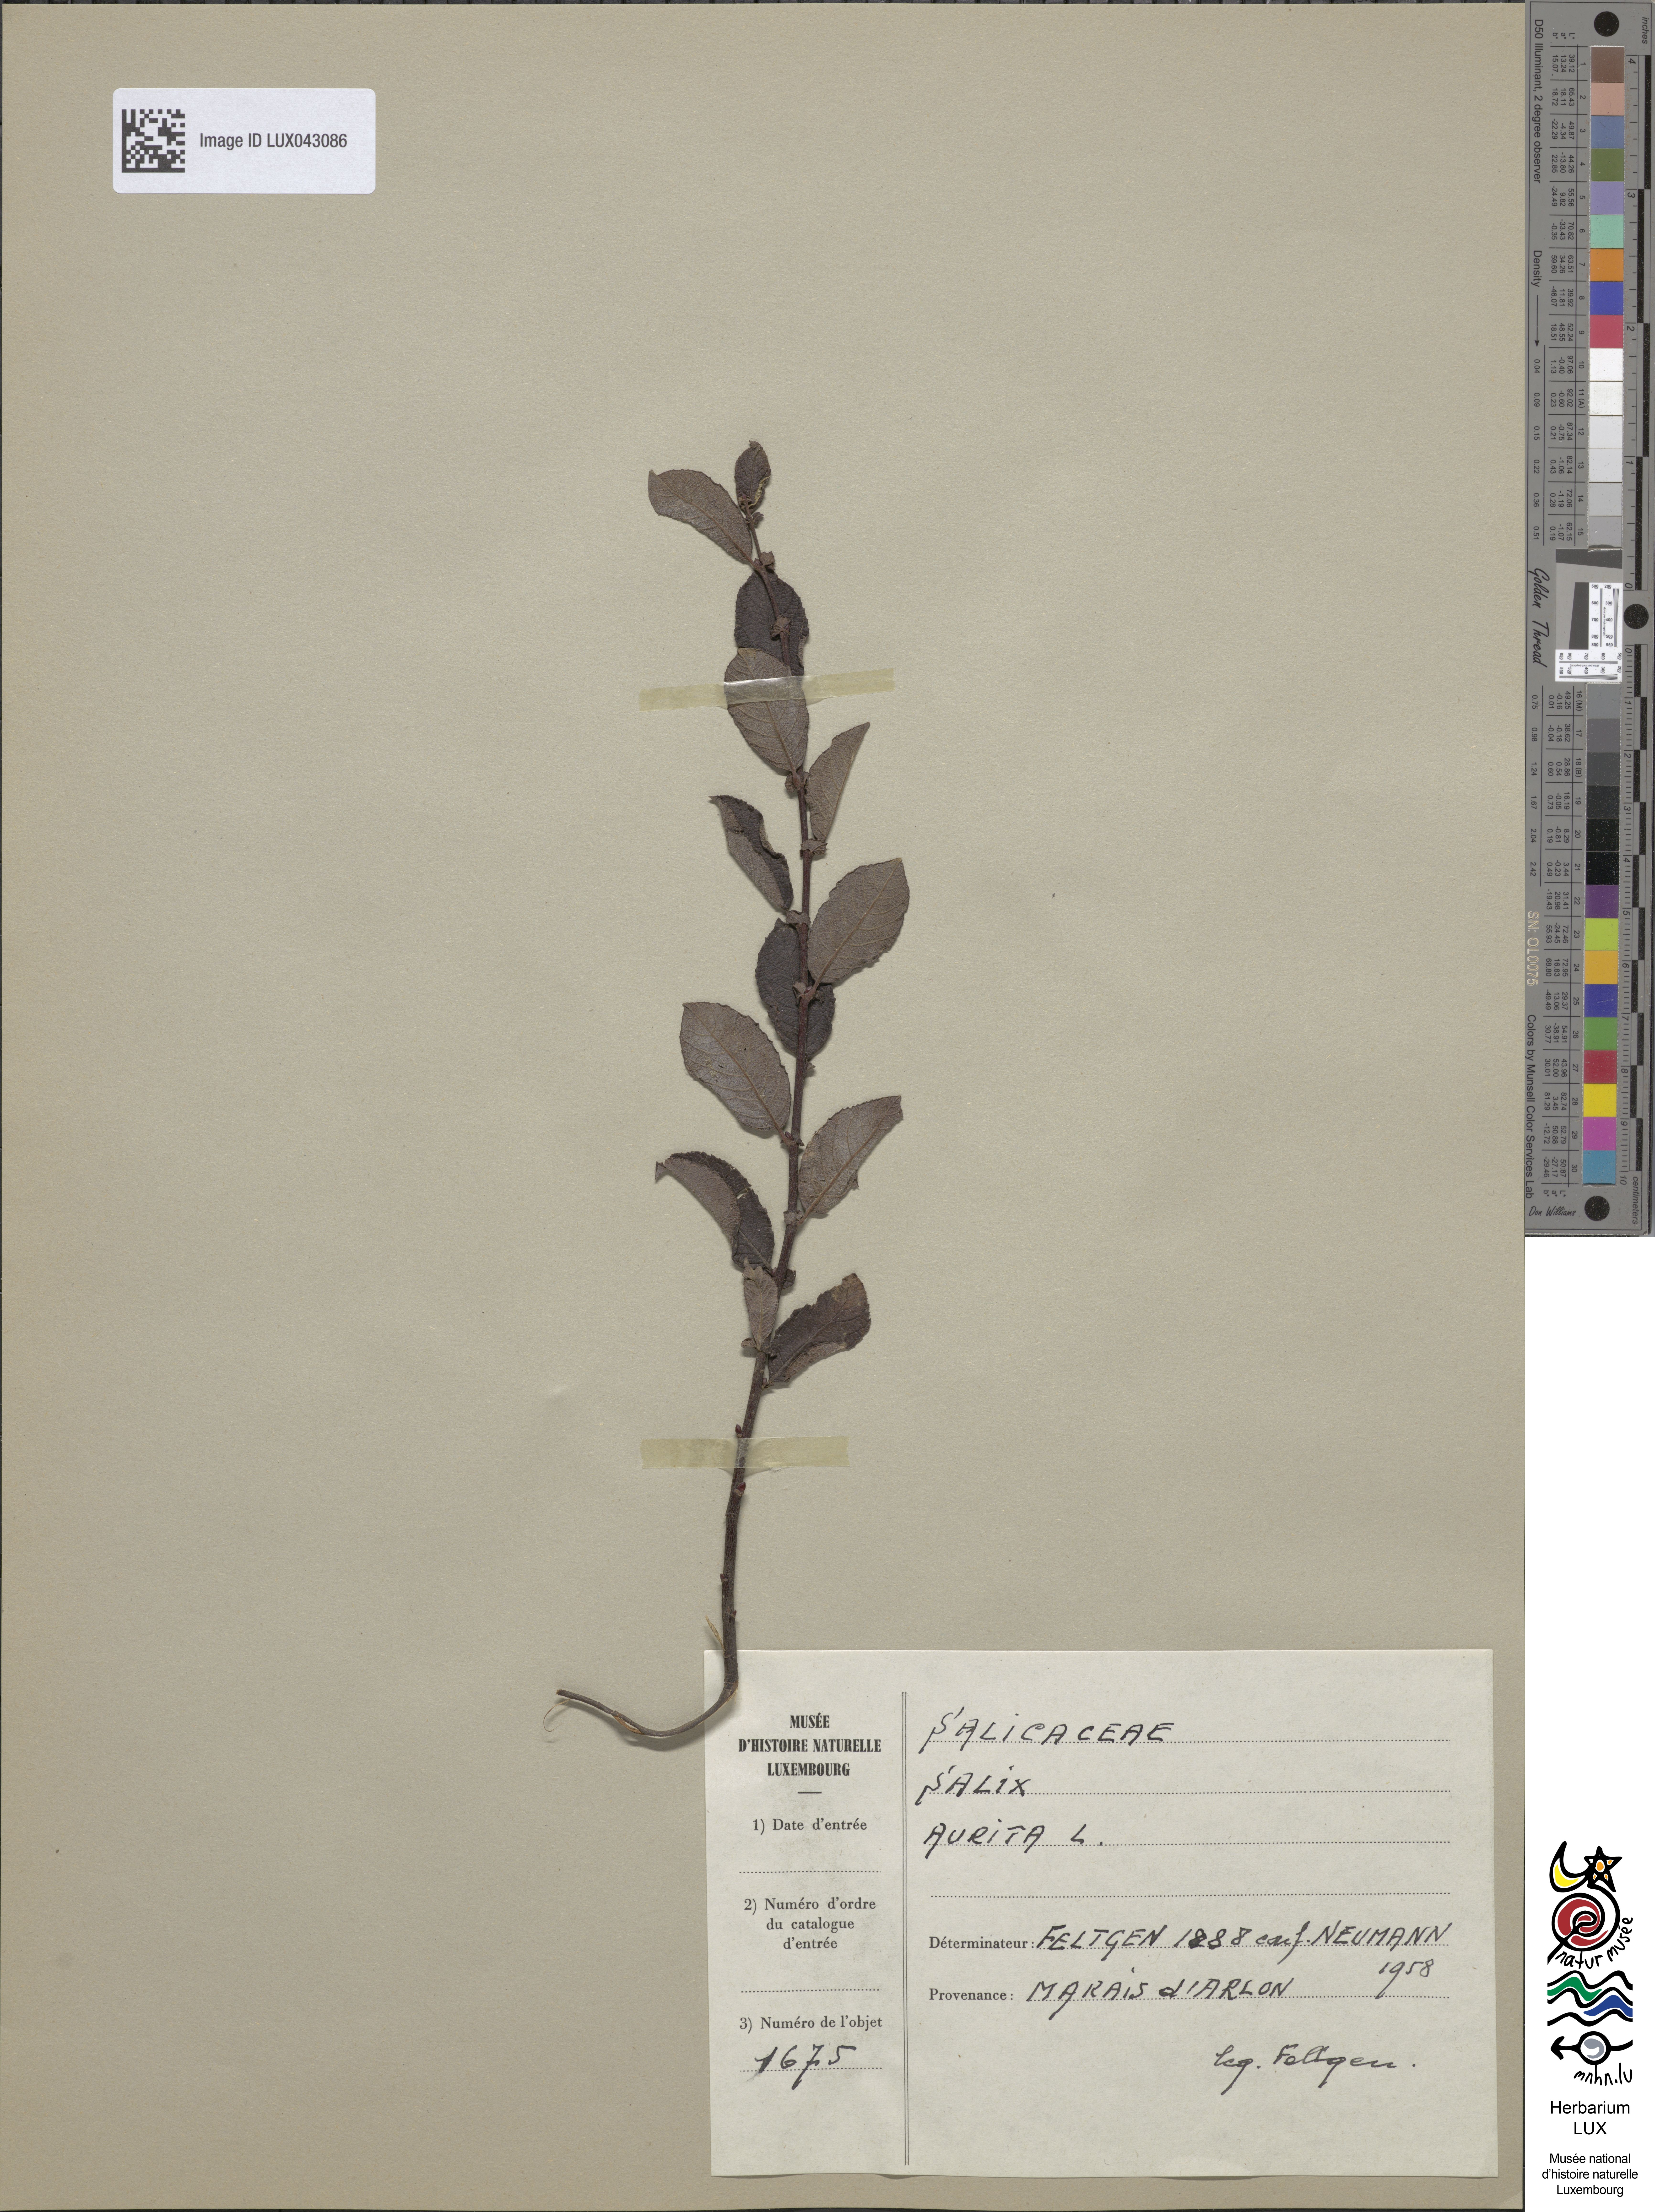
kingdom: Plantae
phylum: Tracheophyta
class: Magnoliopsida
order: Malpighiales
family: Salicaceae
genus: Salix
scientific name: Salix aurita
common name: Eared willow
